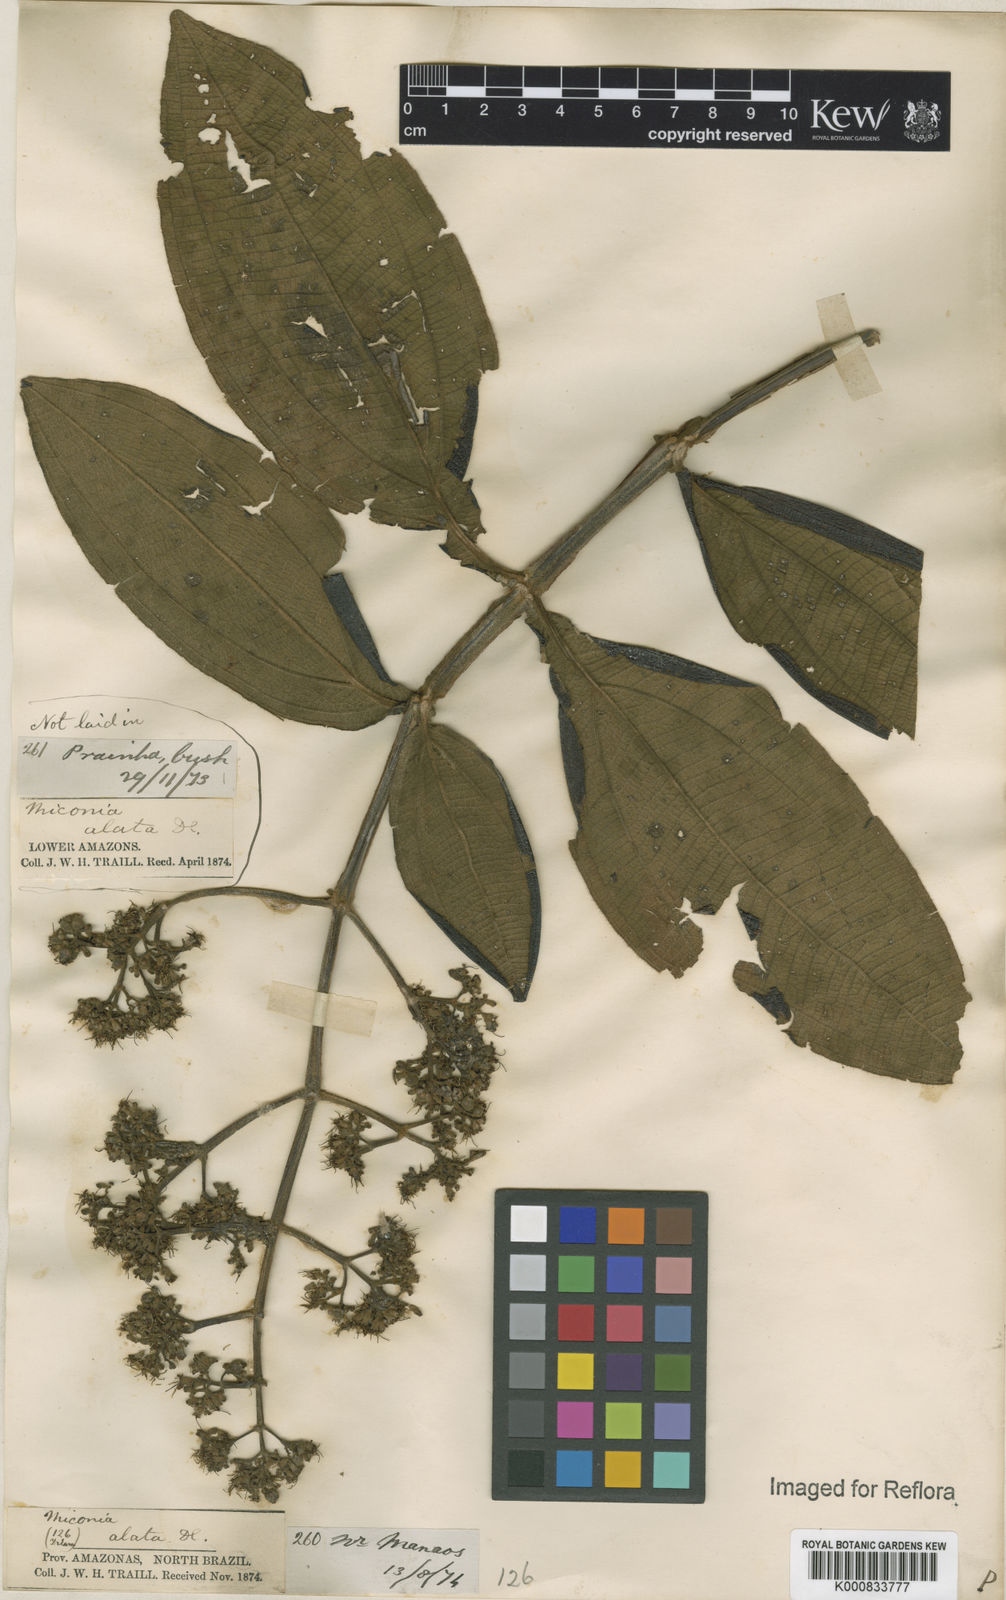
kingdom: Plantae
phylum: Tracheophyta
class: Magnoliopsida
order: Myrtales
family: Melastomataceae
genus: Miconia
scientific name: Miconia alata
